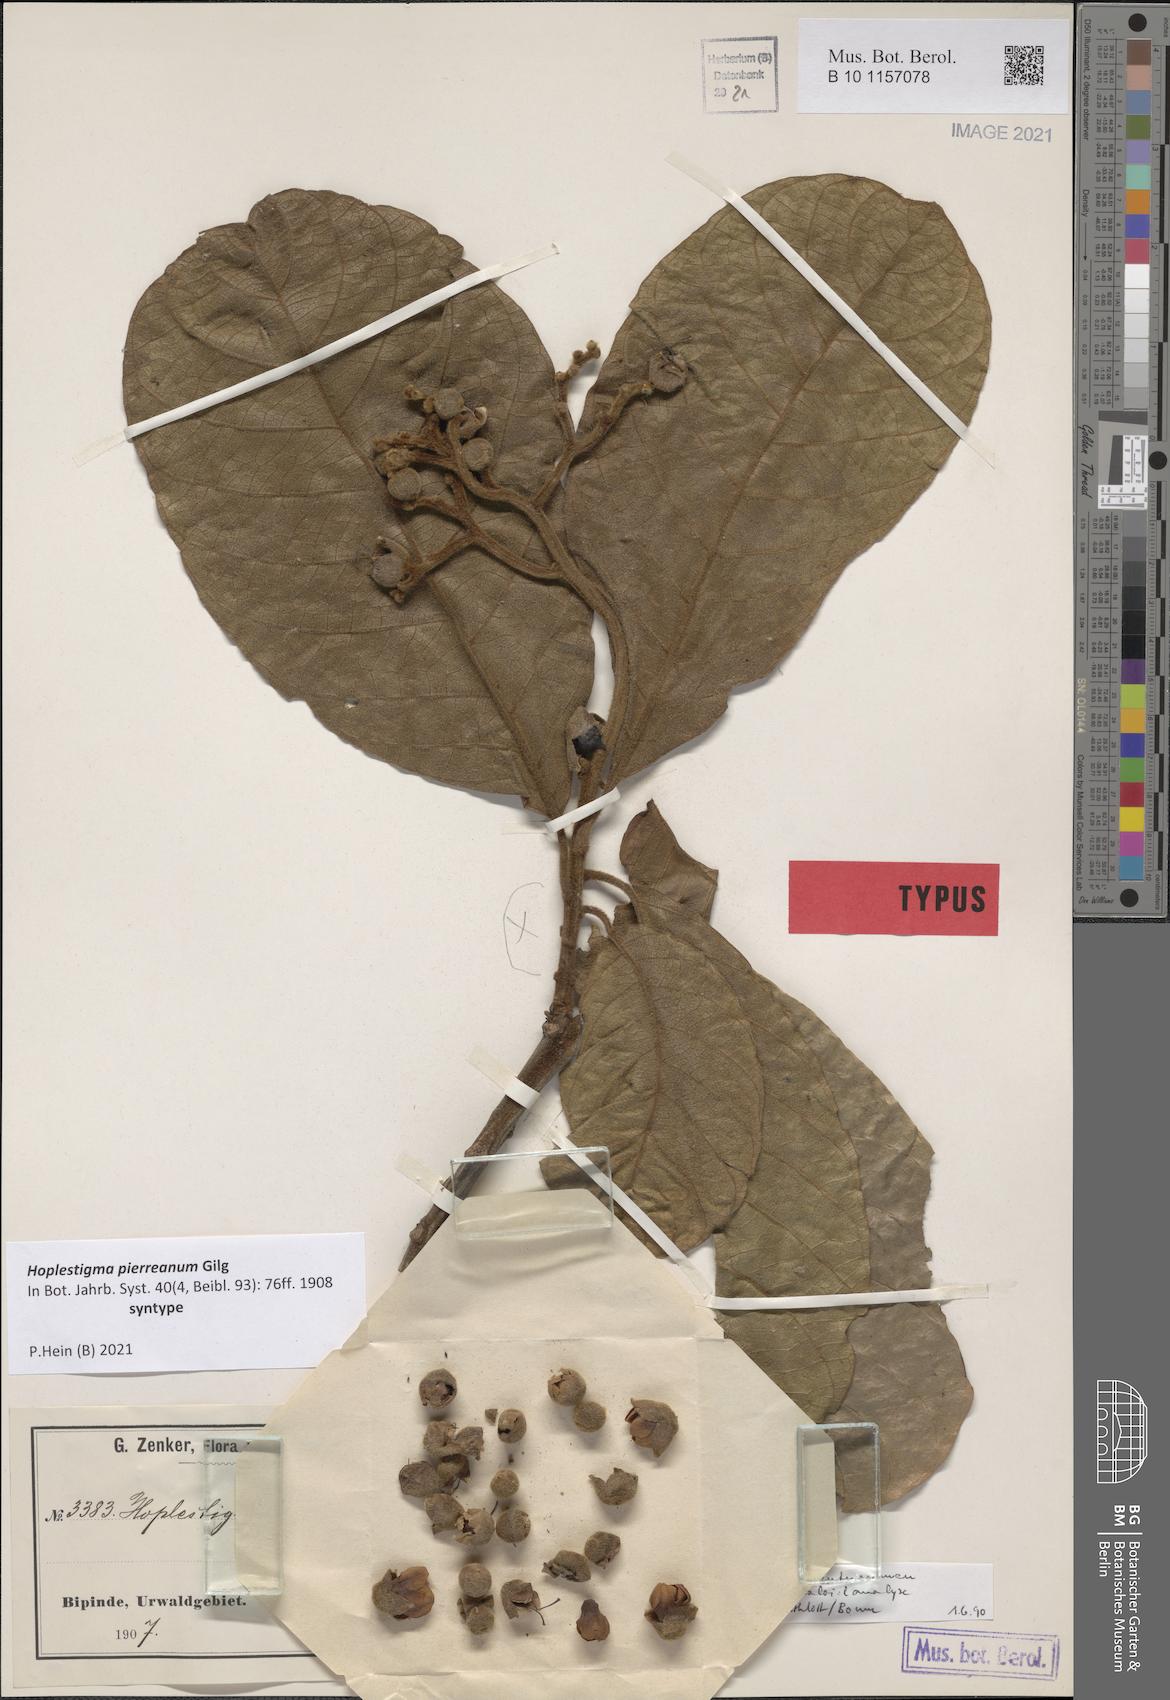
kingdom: Plantae
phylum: Tracheophyta
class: Magnoliopsida
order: Boraginales
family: Hoplestigmataceae
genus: Hoplestigma
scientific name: Hoplestigma pierreanum
